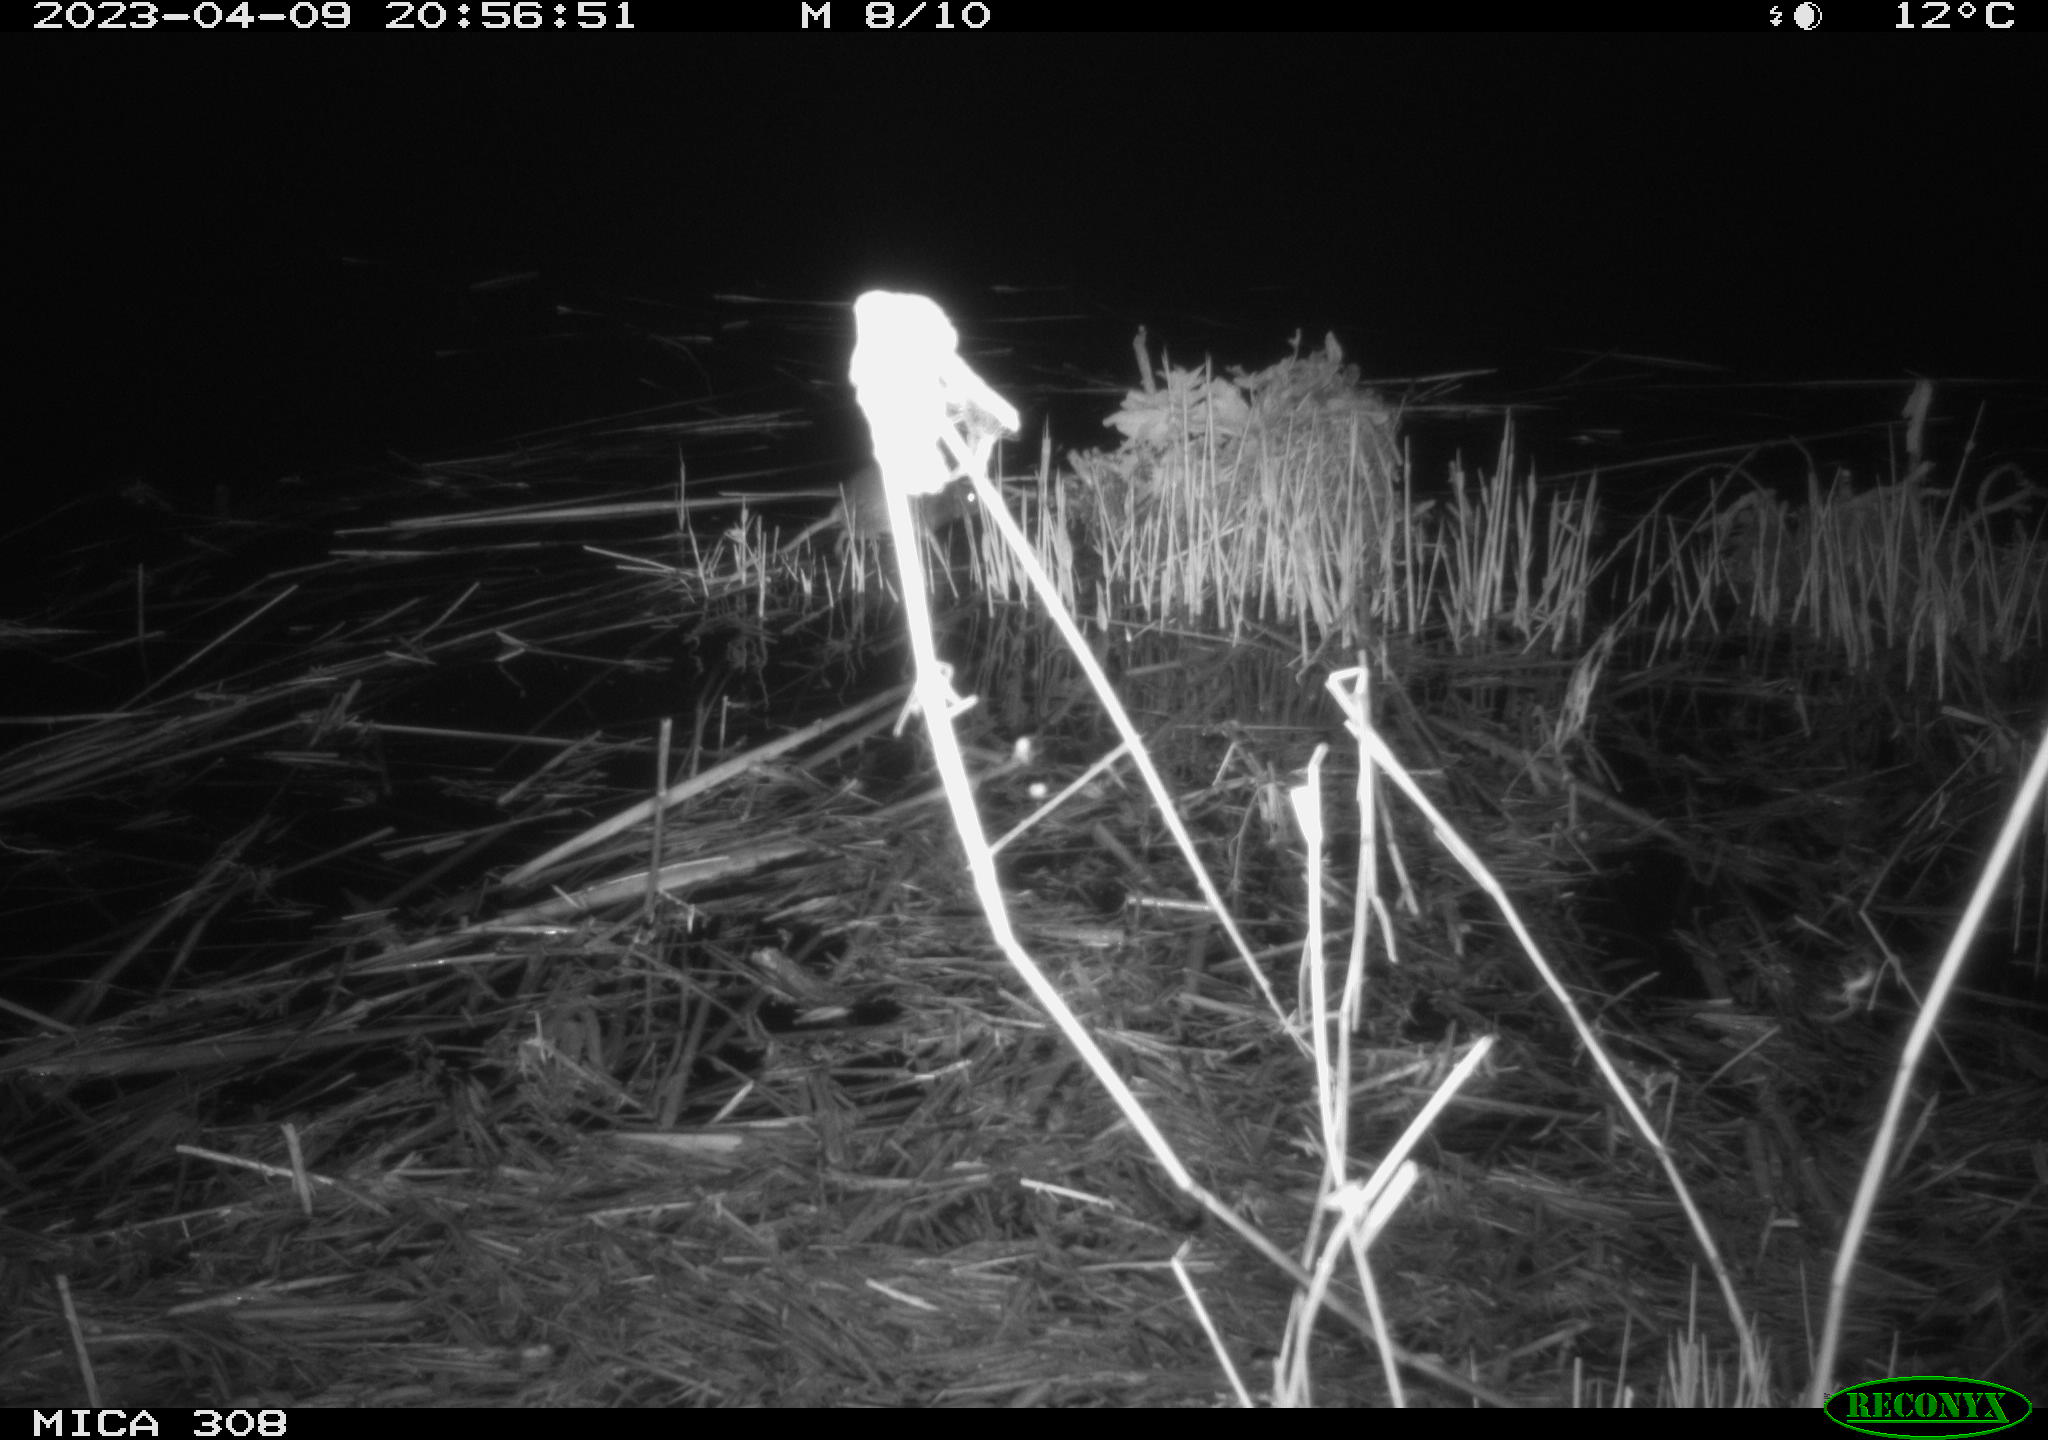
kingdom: Animalia
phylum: Chordata
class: Mammalia
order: Rodentia
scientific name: Rodentia
